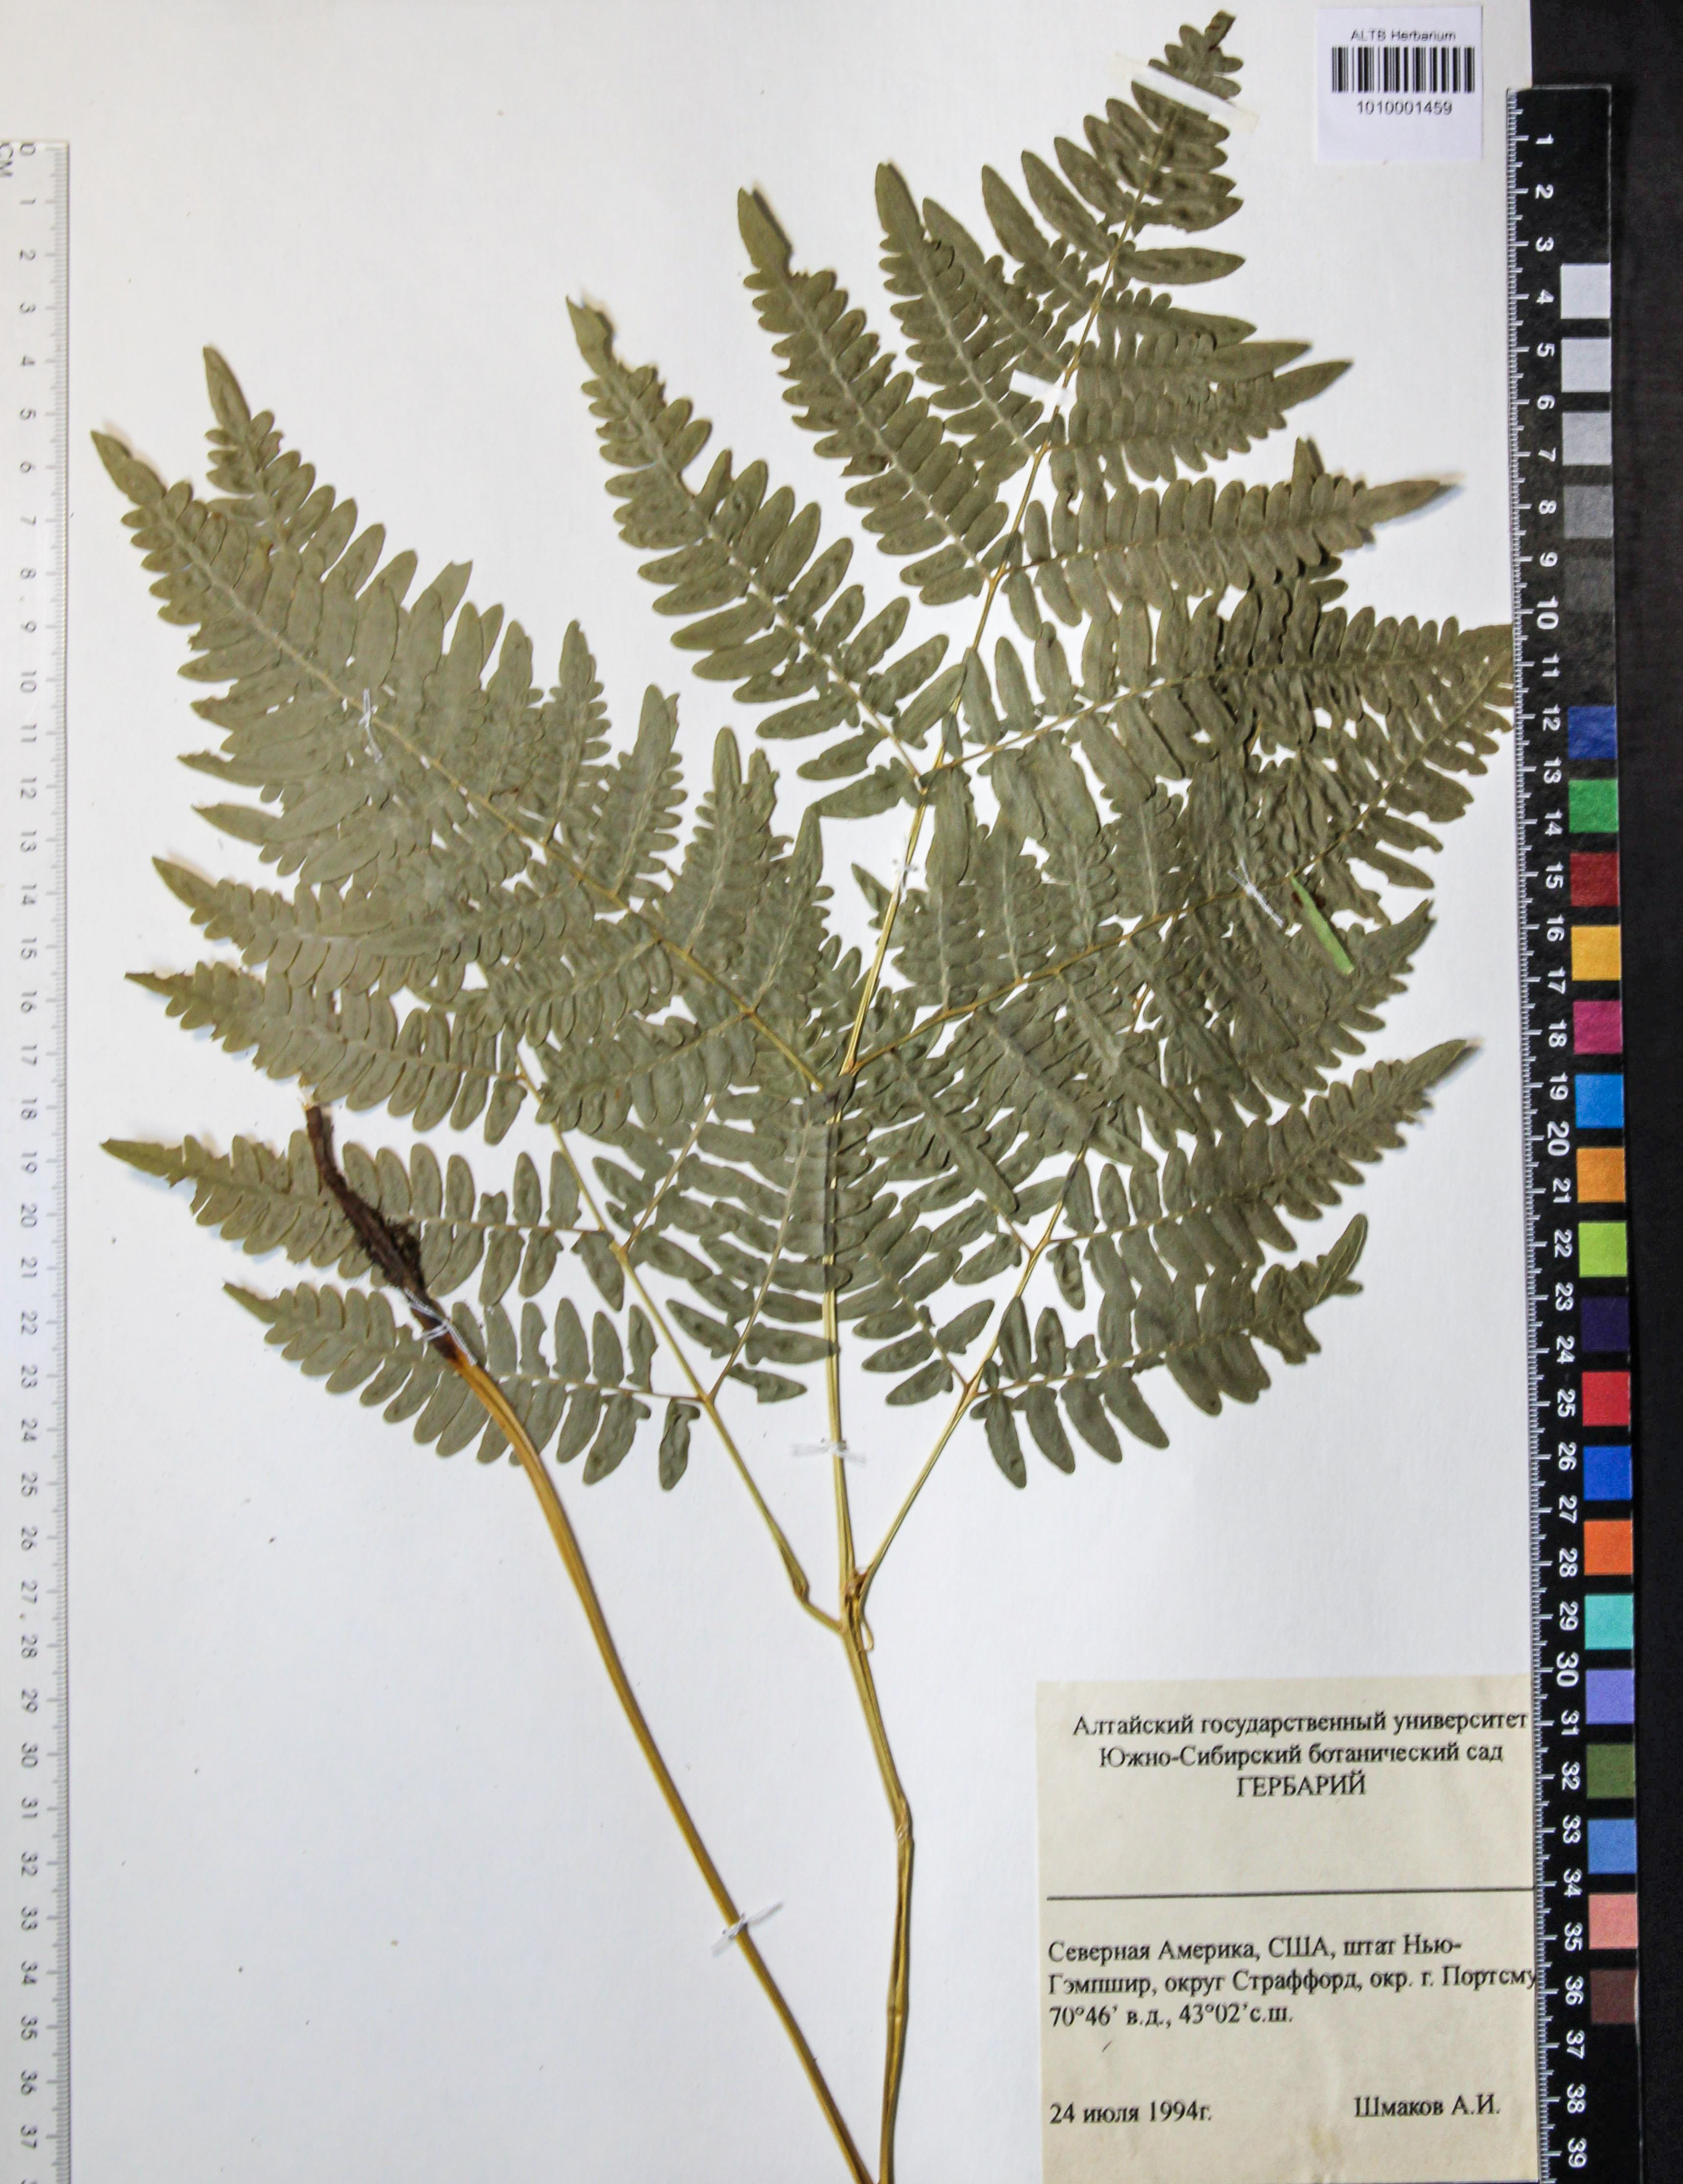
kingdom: Plantae
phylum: Tracheophyta
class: Polypodiopsida
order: Polypodiales
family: Dennstaedtiaceae
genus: Pteridium
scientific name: Pteridium aquilinum
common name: Bracken
